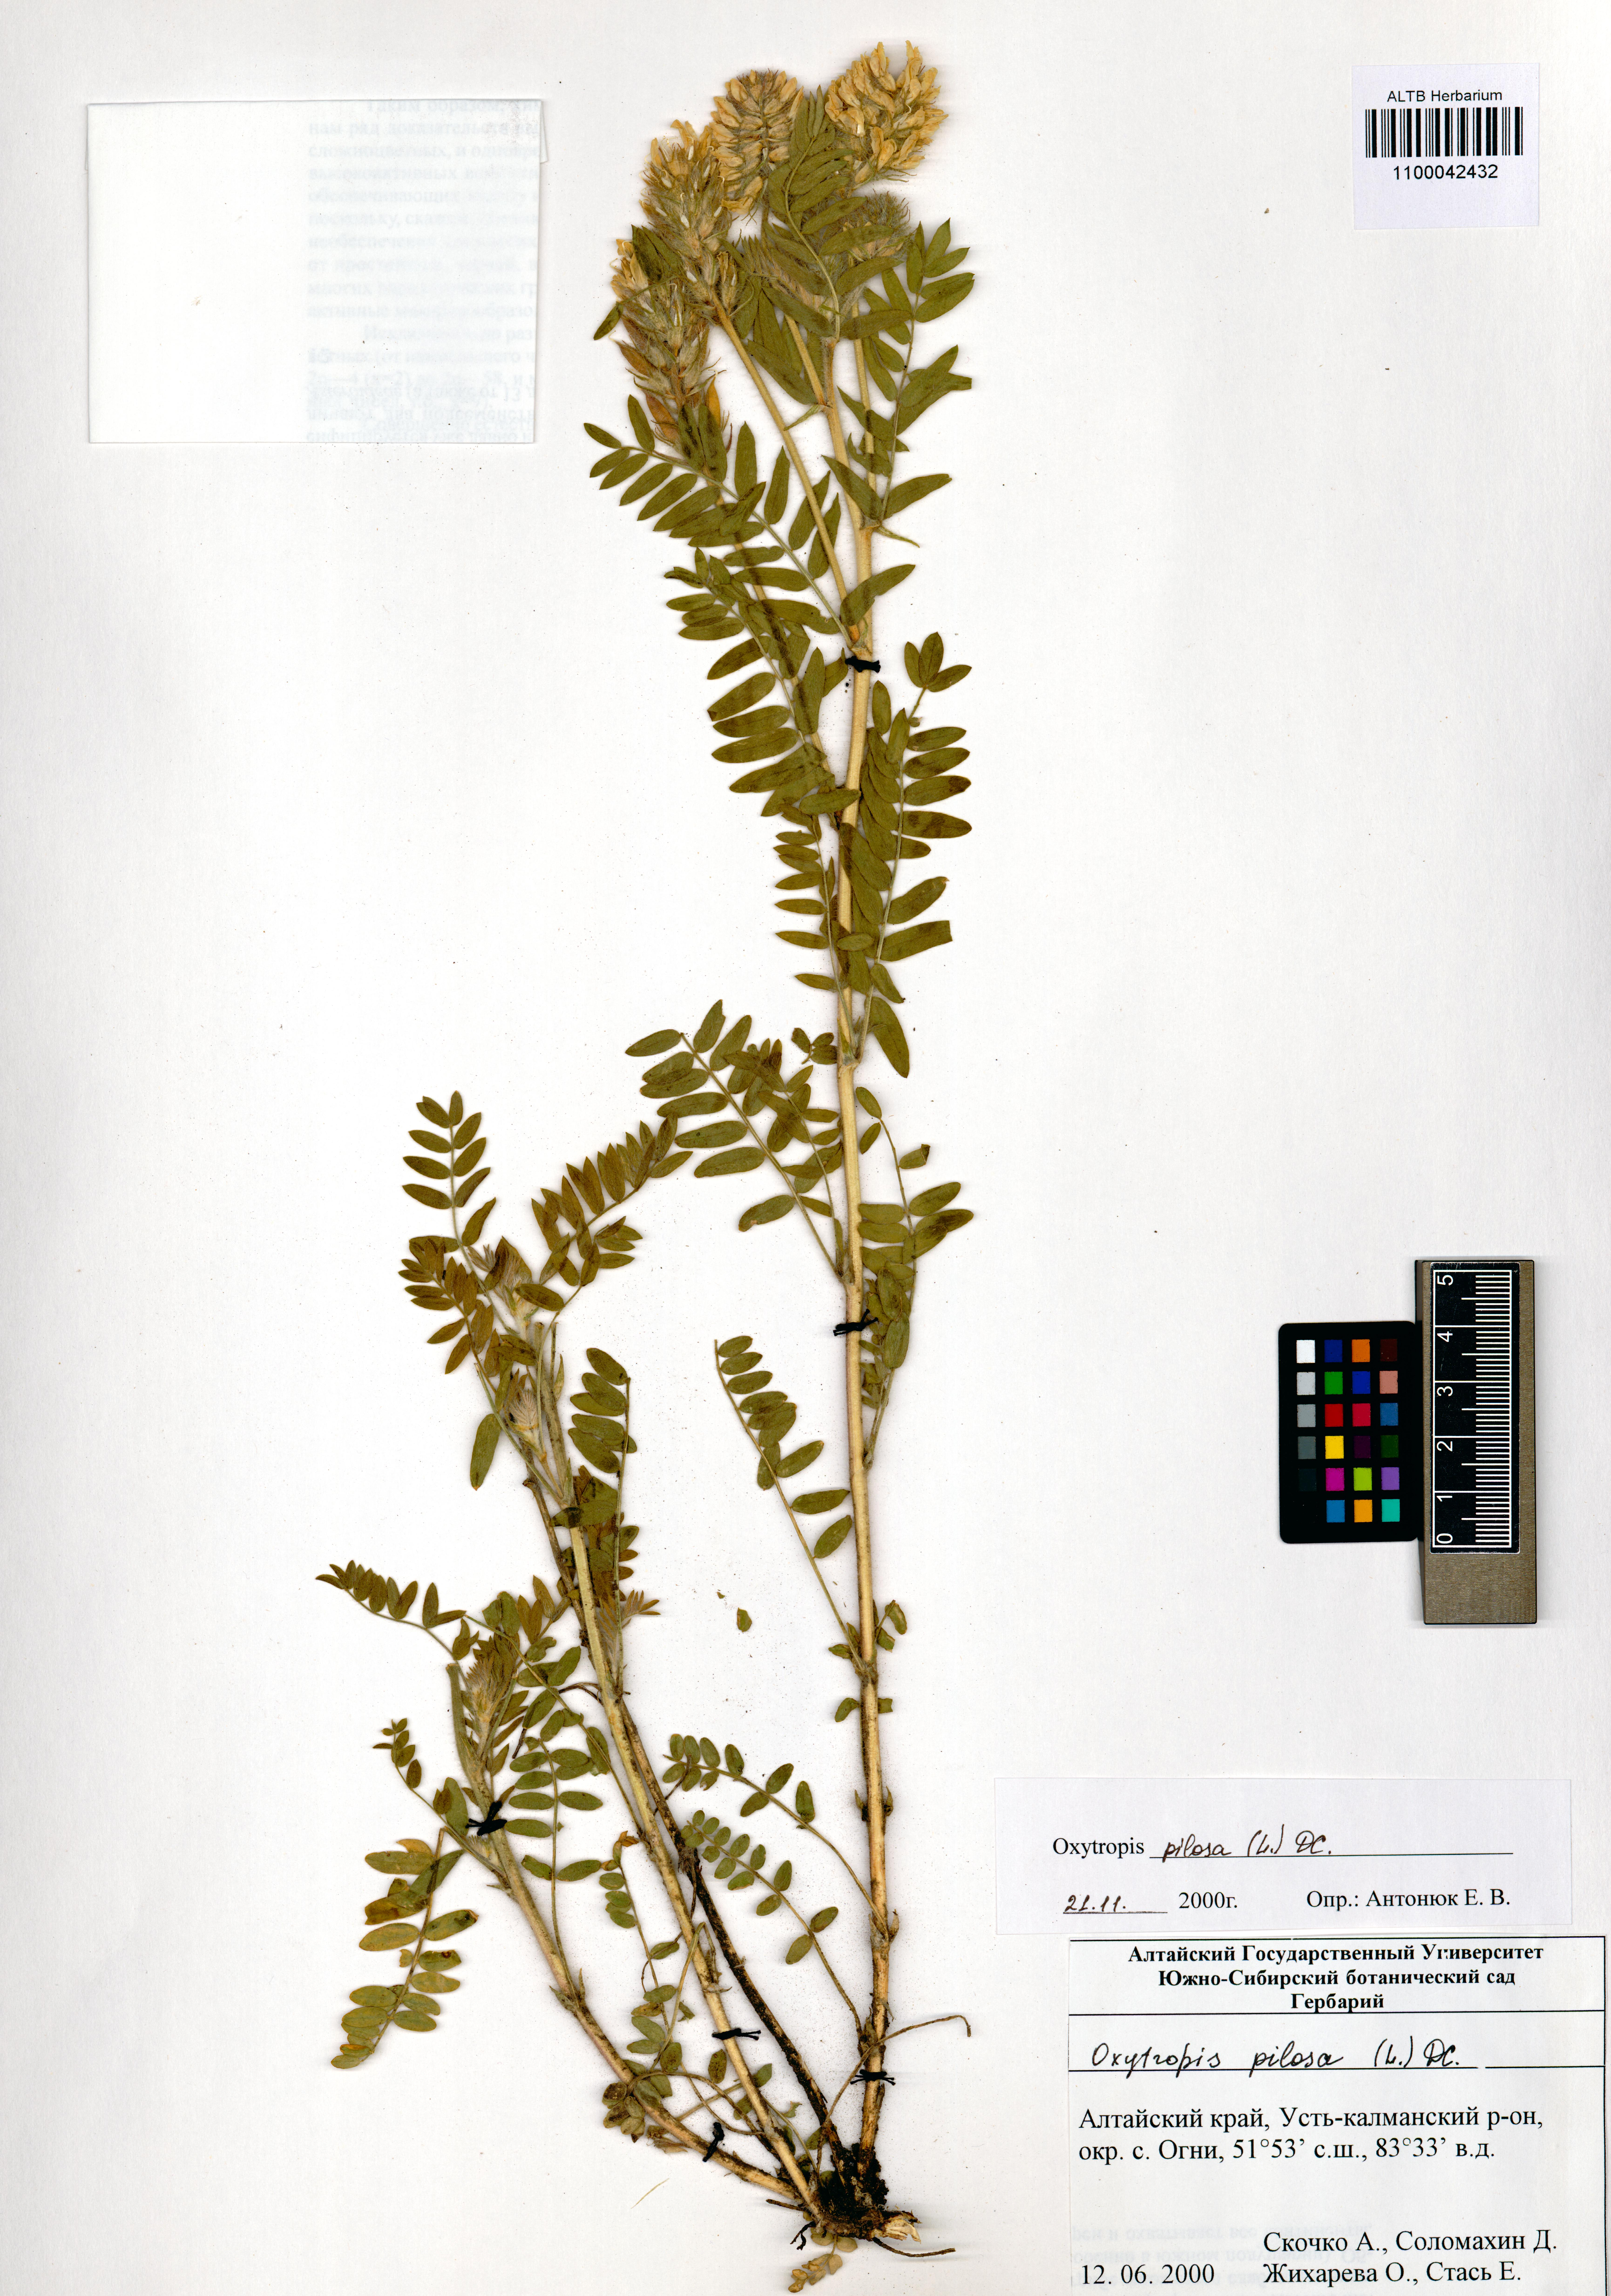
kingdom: Plantae
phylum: Tracheophyta
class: Magnoliopsida
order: Fabales
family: Fabaceae
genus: Oxytropis
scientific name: Oxytropis pilosa
